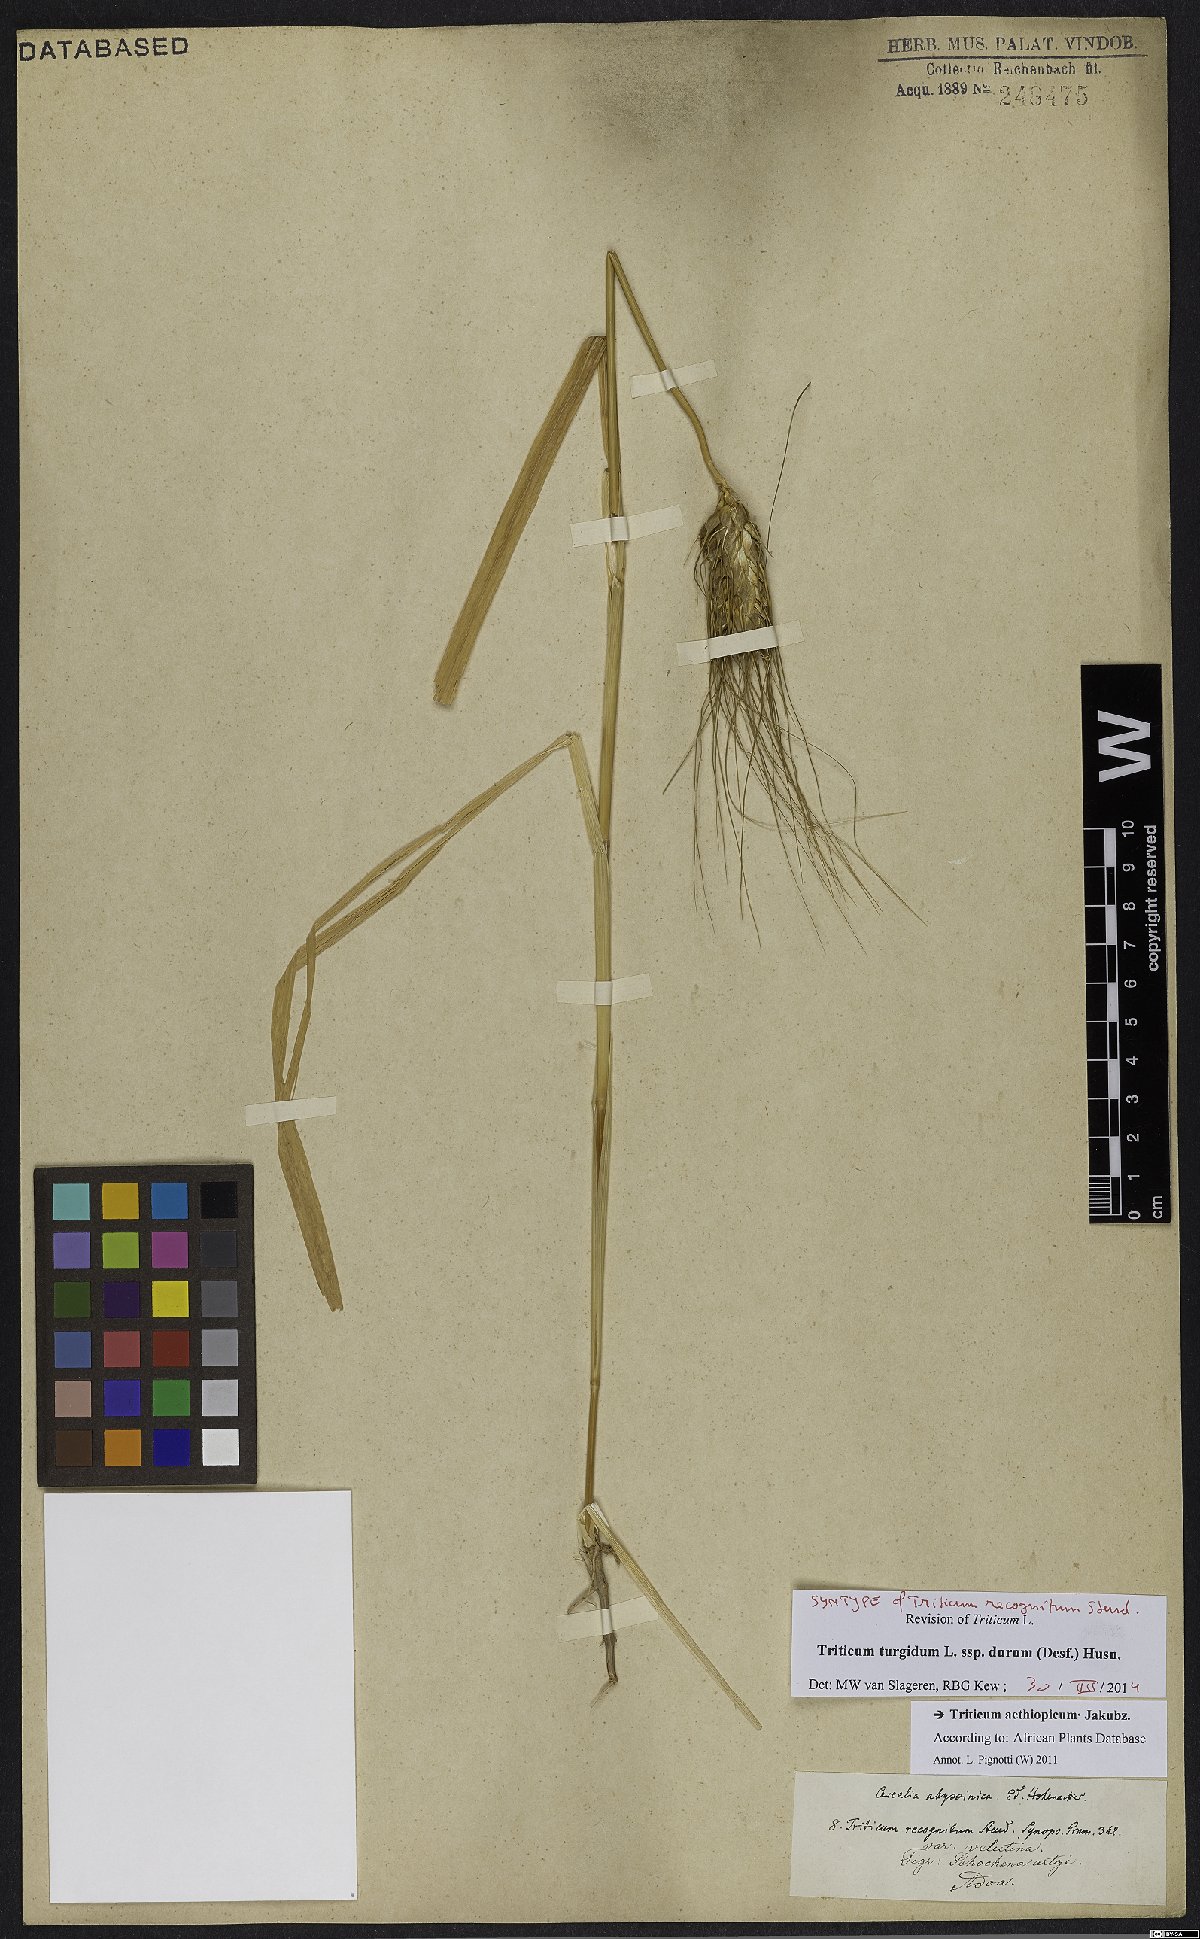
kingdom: Plantae
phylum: Tracheophyta
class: Liliopsida
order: Poales
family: Poaceae
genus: Triticum
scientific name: Triticum turgidum
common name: Rivet wheat
